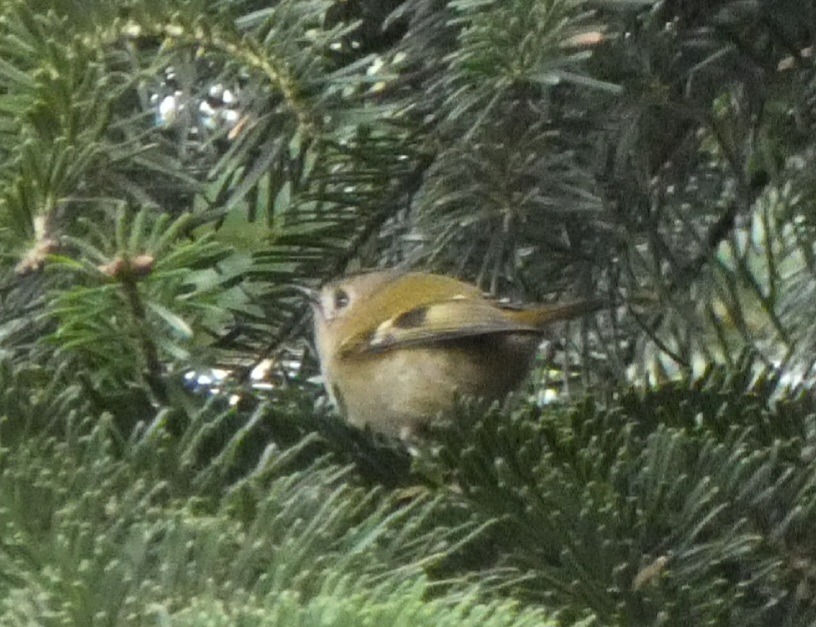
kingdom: Animalia
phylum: Chordata
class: Aves
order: Passeriformes
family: Regulidae
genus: Regulus
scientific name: Regulus regulus
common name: Fuglekonge
